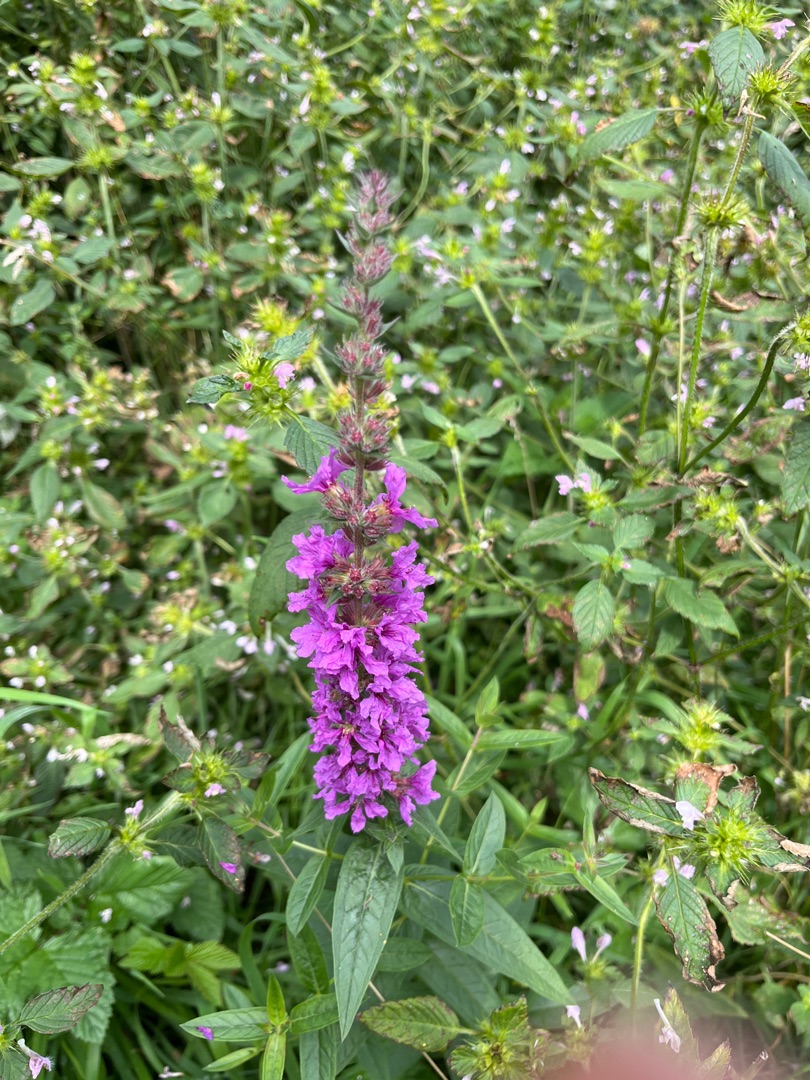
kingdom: Plantae
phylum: Tracheophyta
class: Magnoliopsida
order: Myrtales
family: Lythraceae
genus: Lythrum
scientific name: Lythrum salicaria
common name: Kattehale
